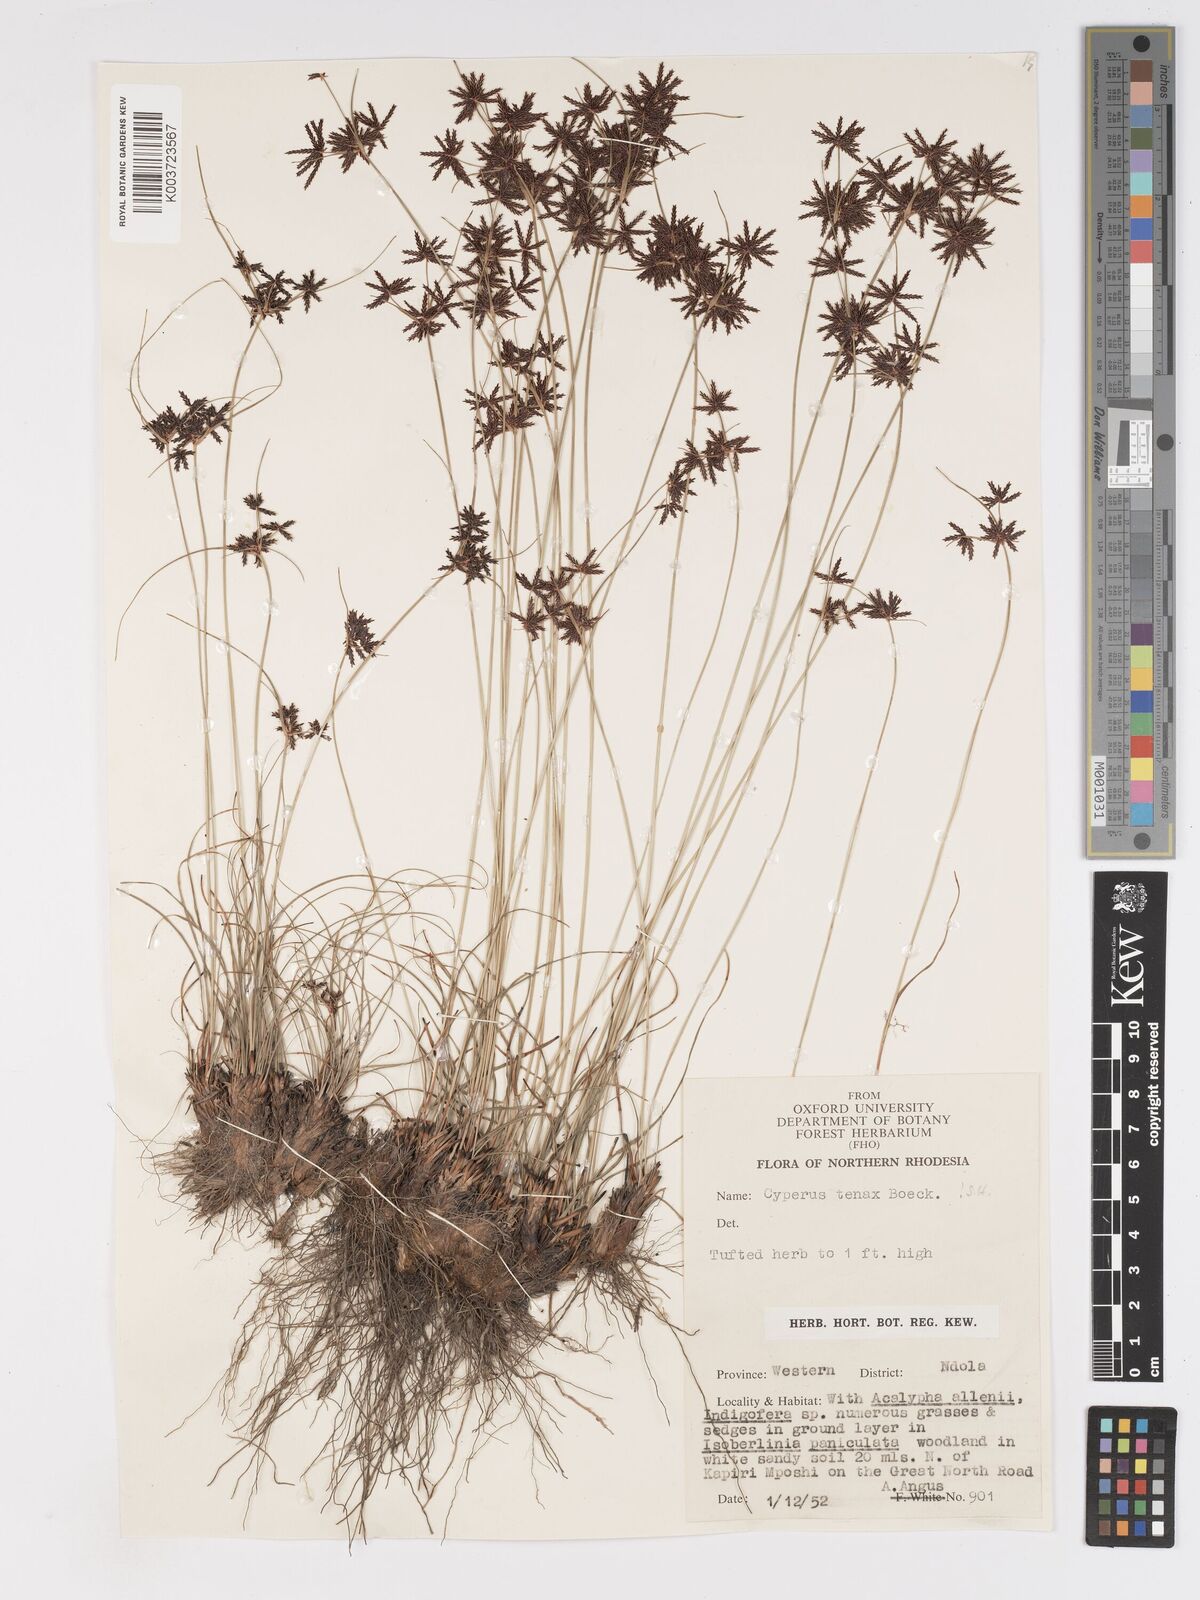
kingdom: Plantae
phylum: Tracheophyta
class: Liliopsida
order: Poales
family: Cyperaceae
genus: Cyperus
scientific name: Cyperus tenax
